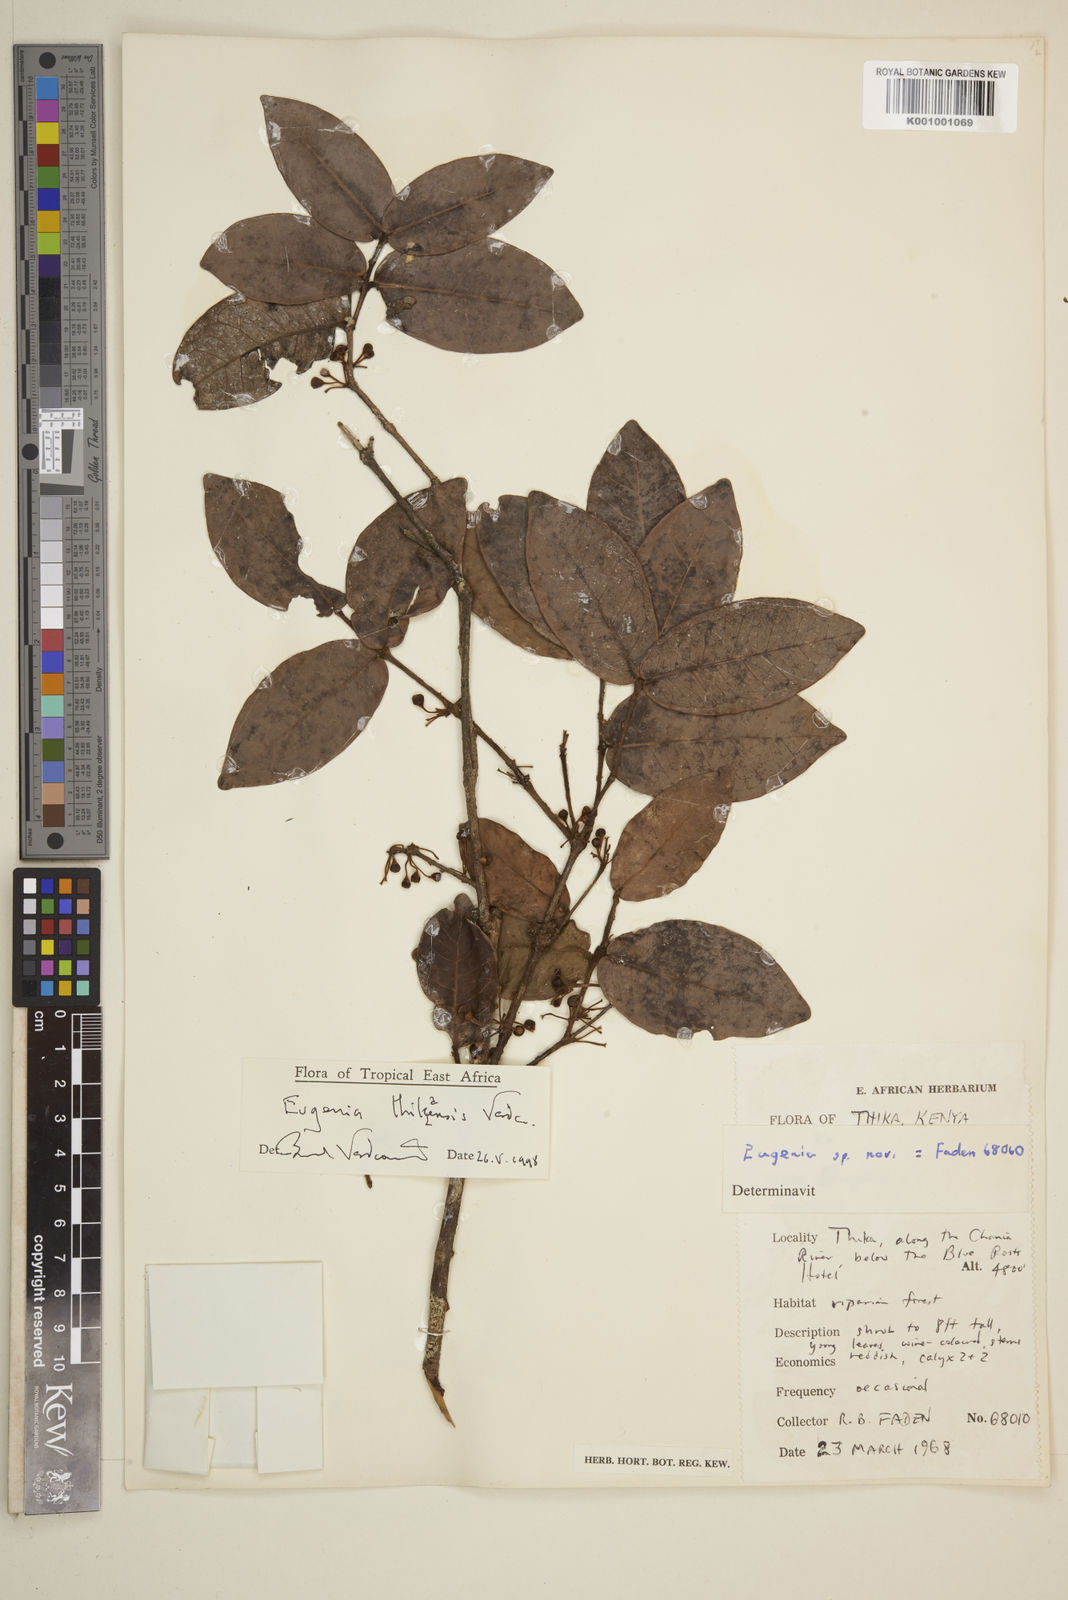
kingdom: Plantae
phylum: Tracheophyta
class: Magnoliopsida
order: Myrtales
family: Myrtaceae
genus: Eugenia
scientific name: Eugenia thikaensis
